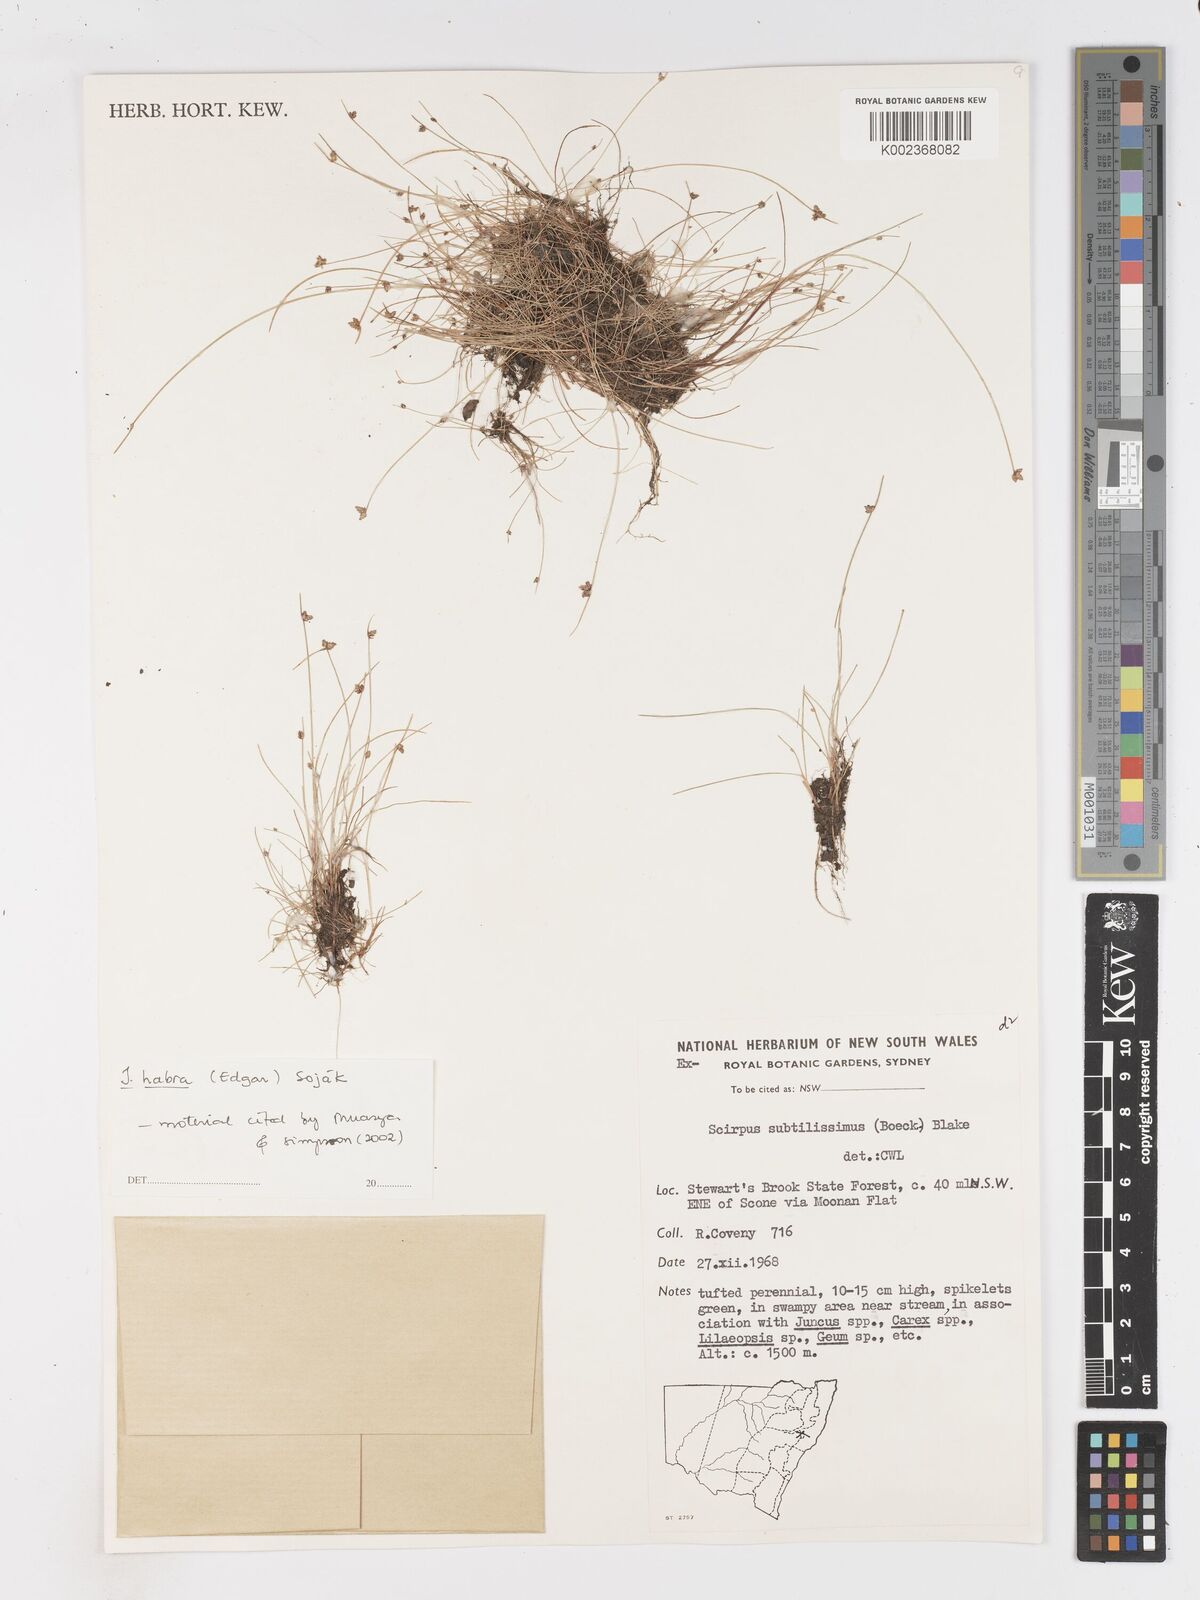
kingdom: Plantae
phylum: Tracheophyta
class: Liliopsida
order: Poales
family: Cyperaceae
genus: Isolepis
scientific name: Isolepis habra
